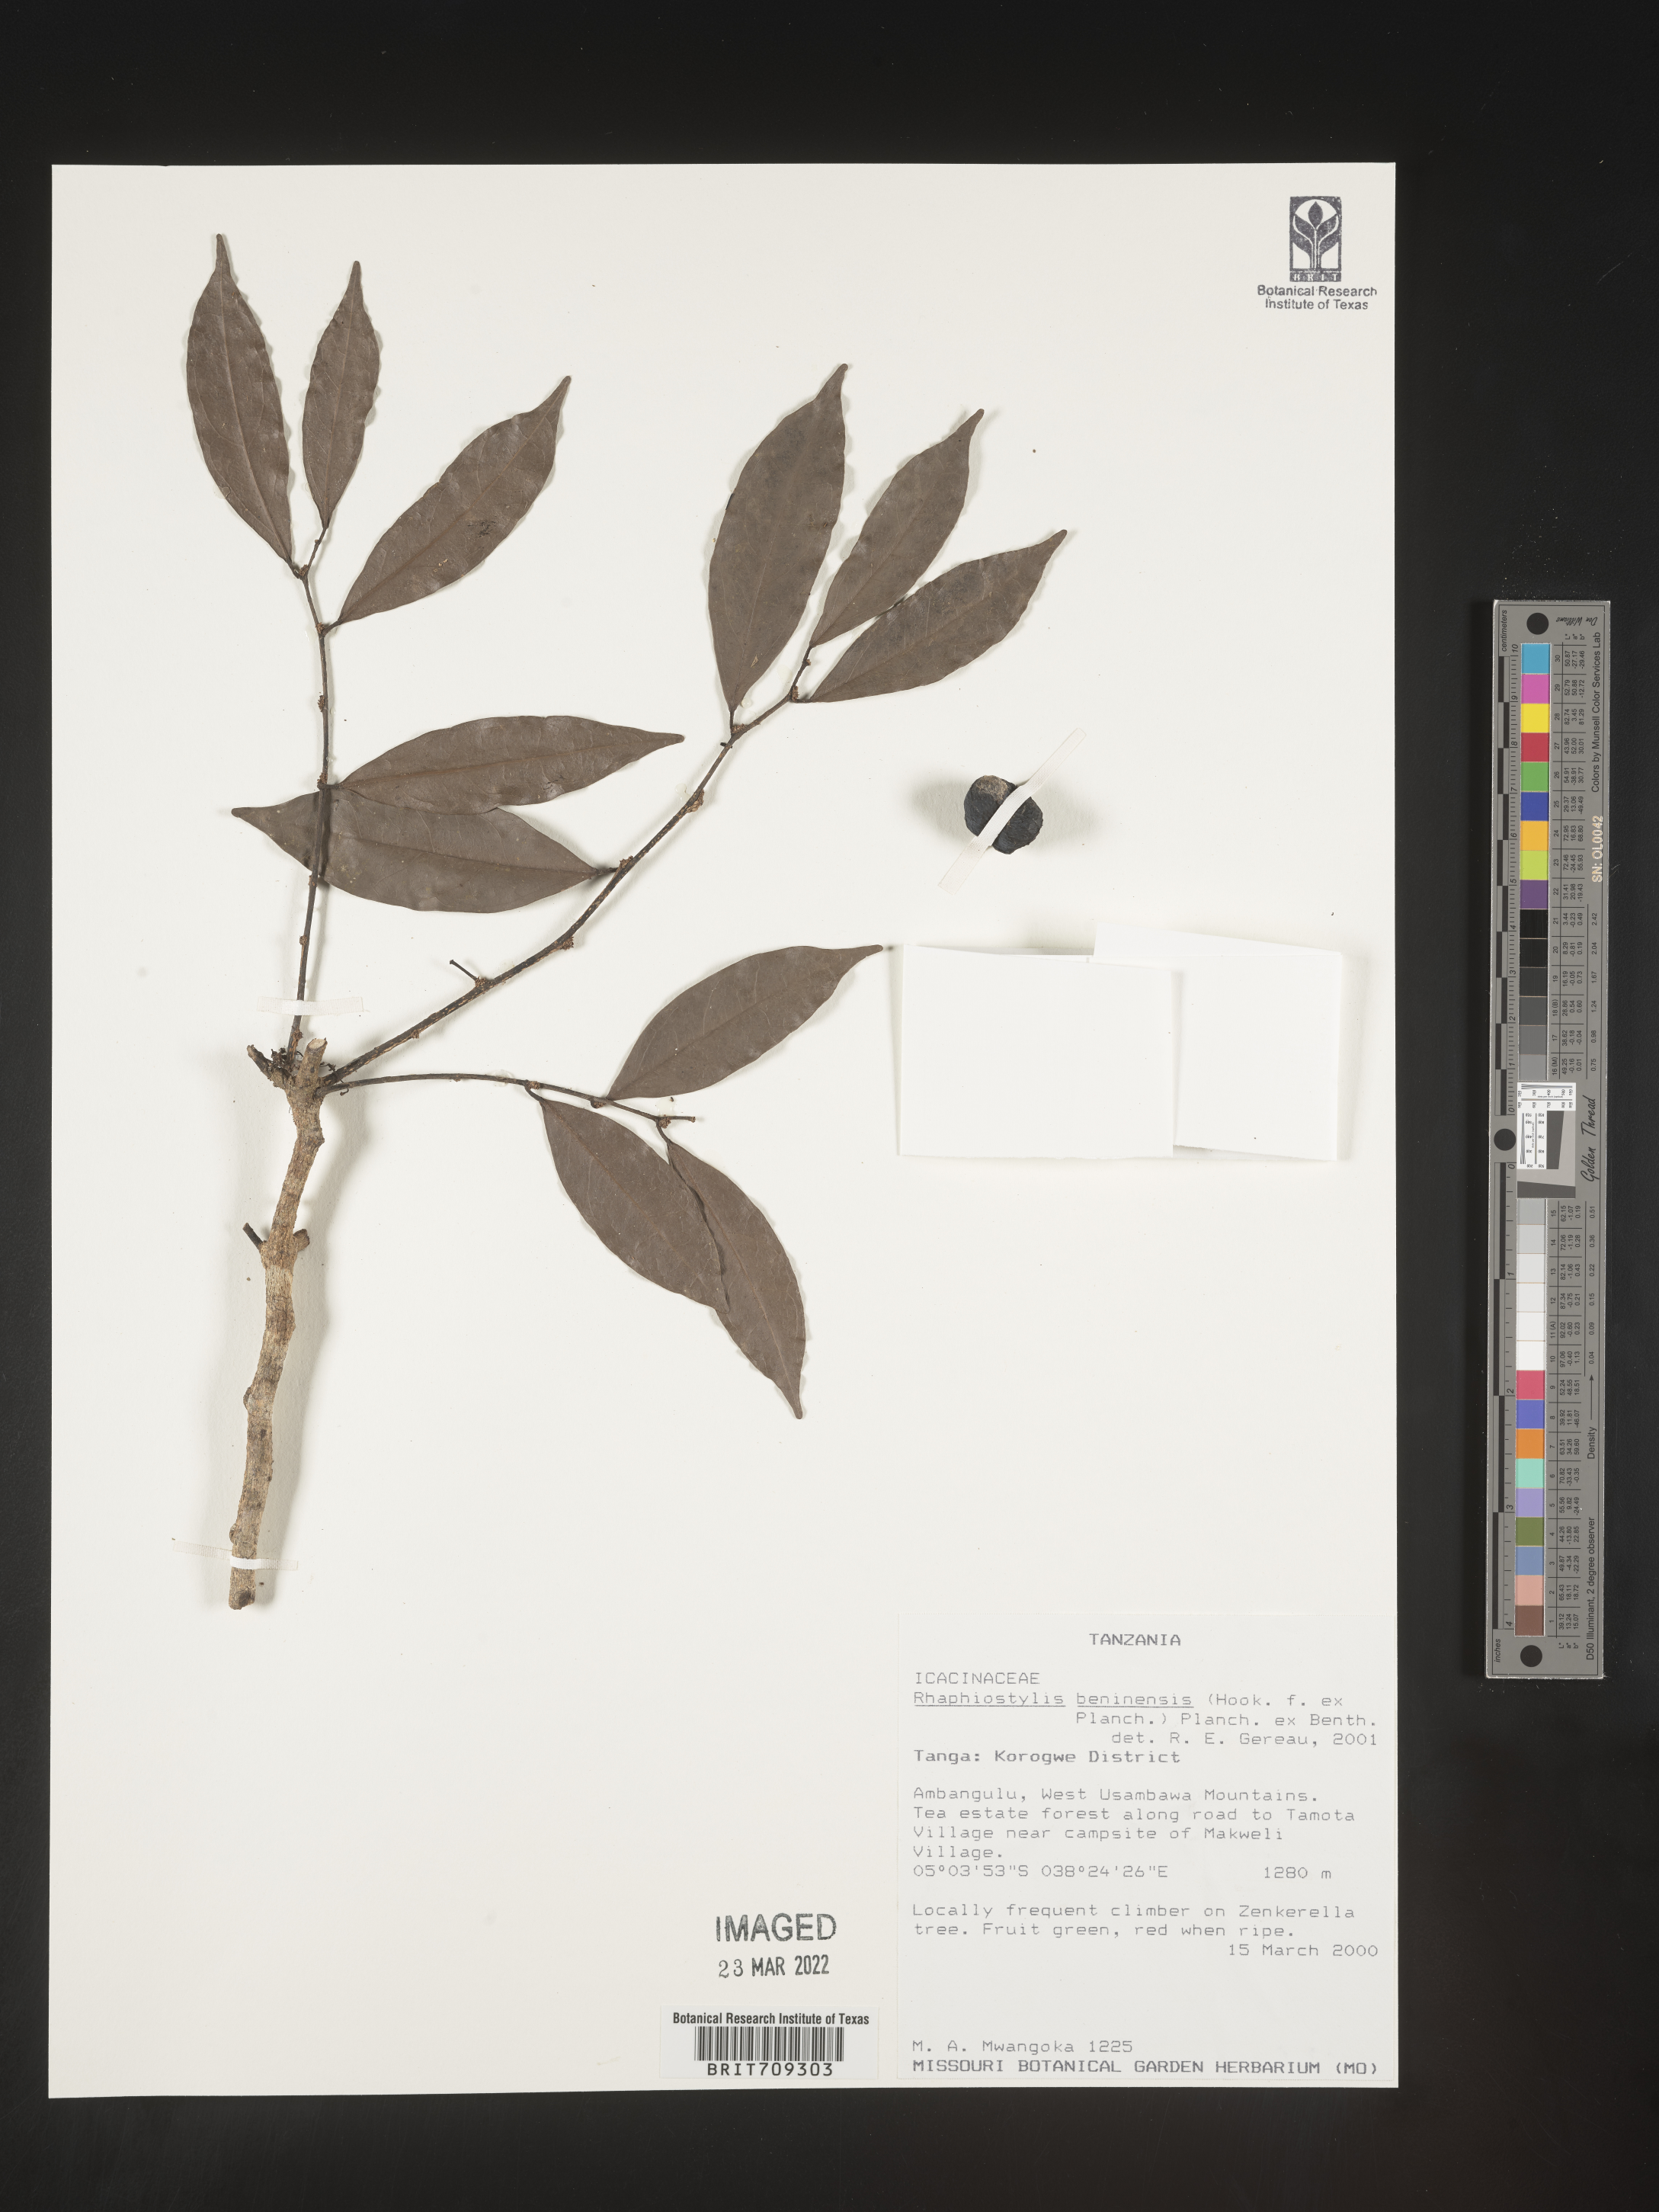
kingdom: Plantae
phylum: Tracheophyta
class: Magnoliopsida
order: Metteniusales
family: Metteniusaceae
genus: Rhaphiostylis
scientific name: Rhaphiostylis
